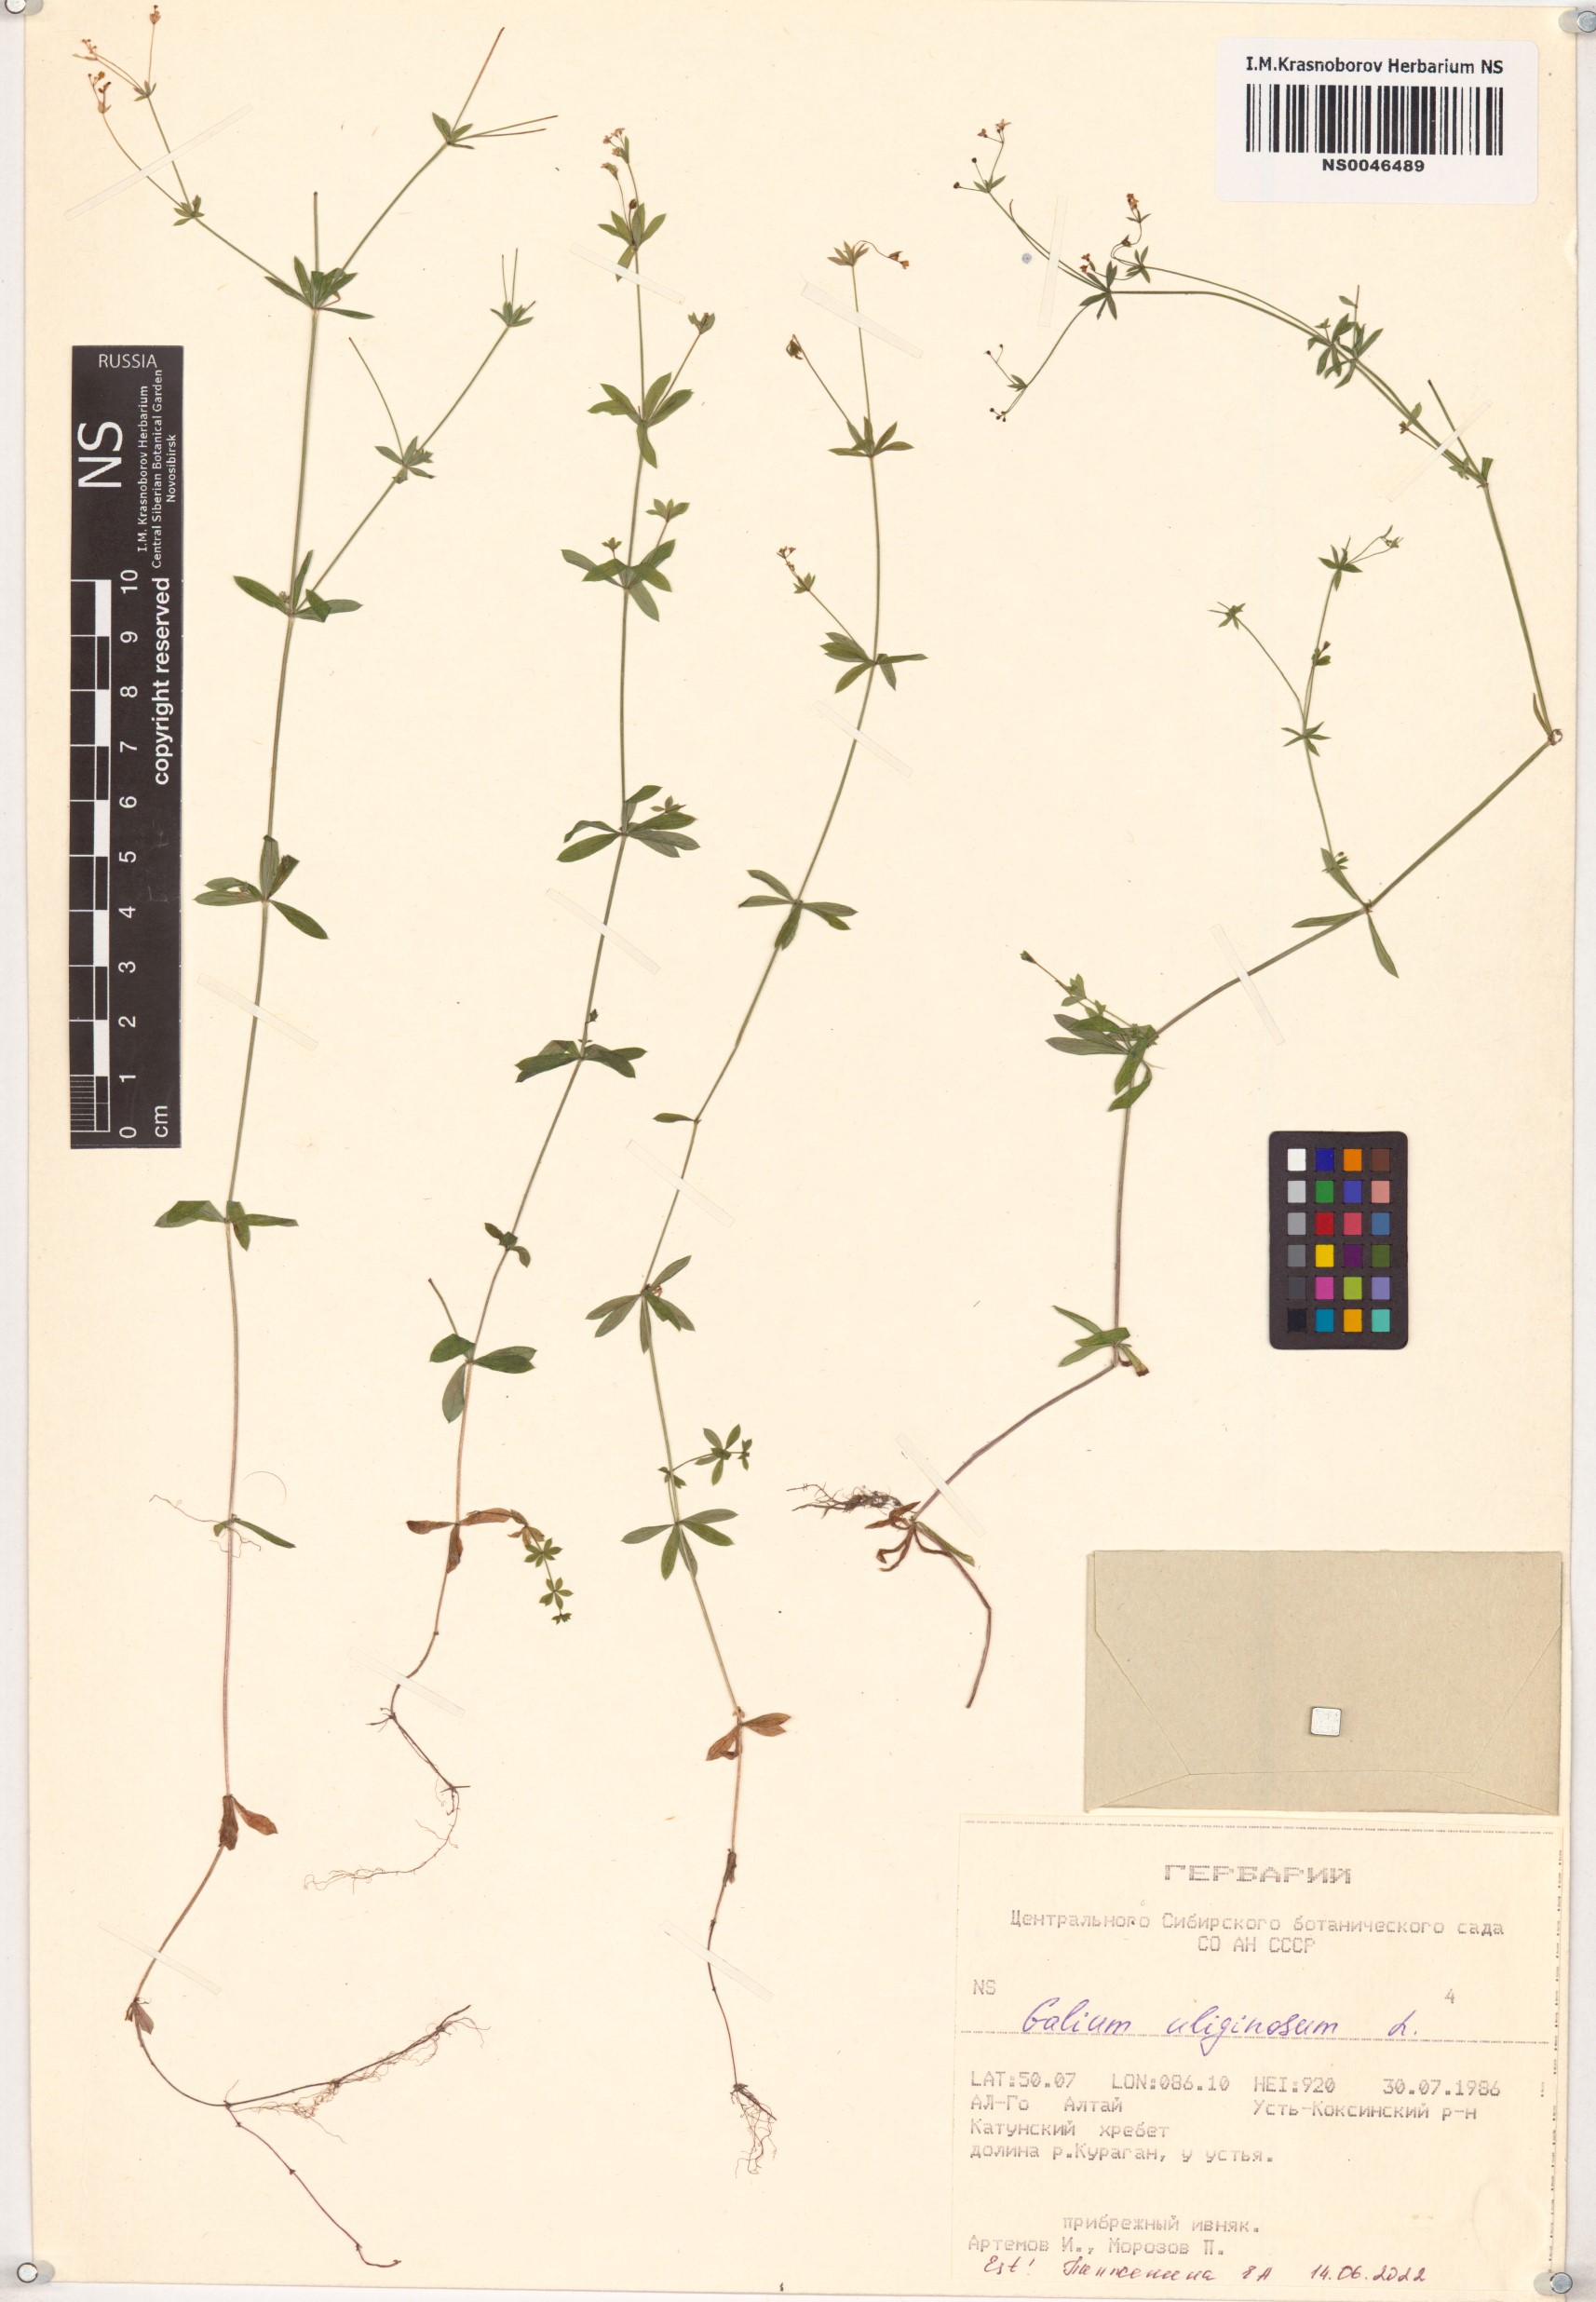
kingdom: Plantae
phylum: Tracheophyta
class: Magnoliopsida
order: Gentianales
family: Rubiaceae
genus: Galium
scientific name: Galium uliginosum
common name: Fen bedstraw
